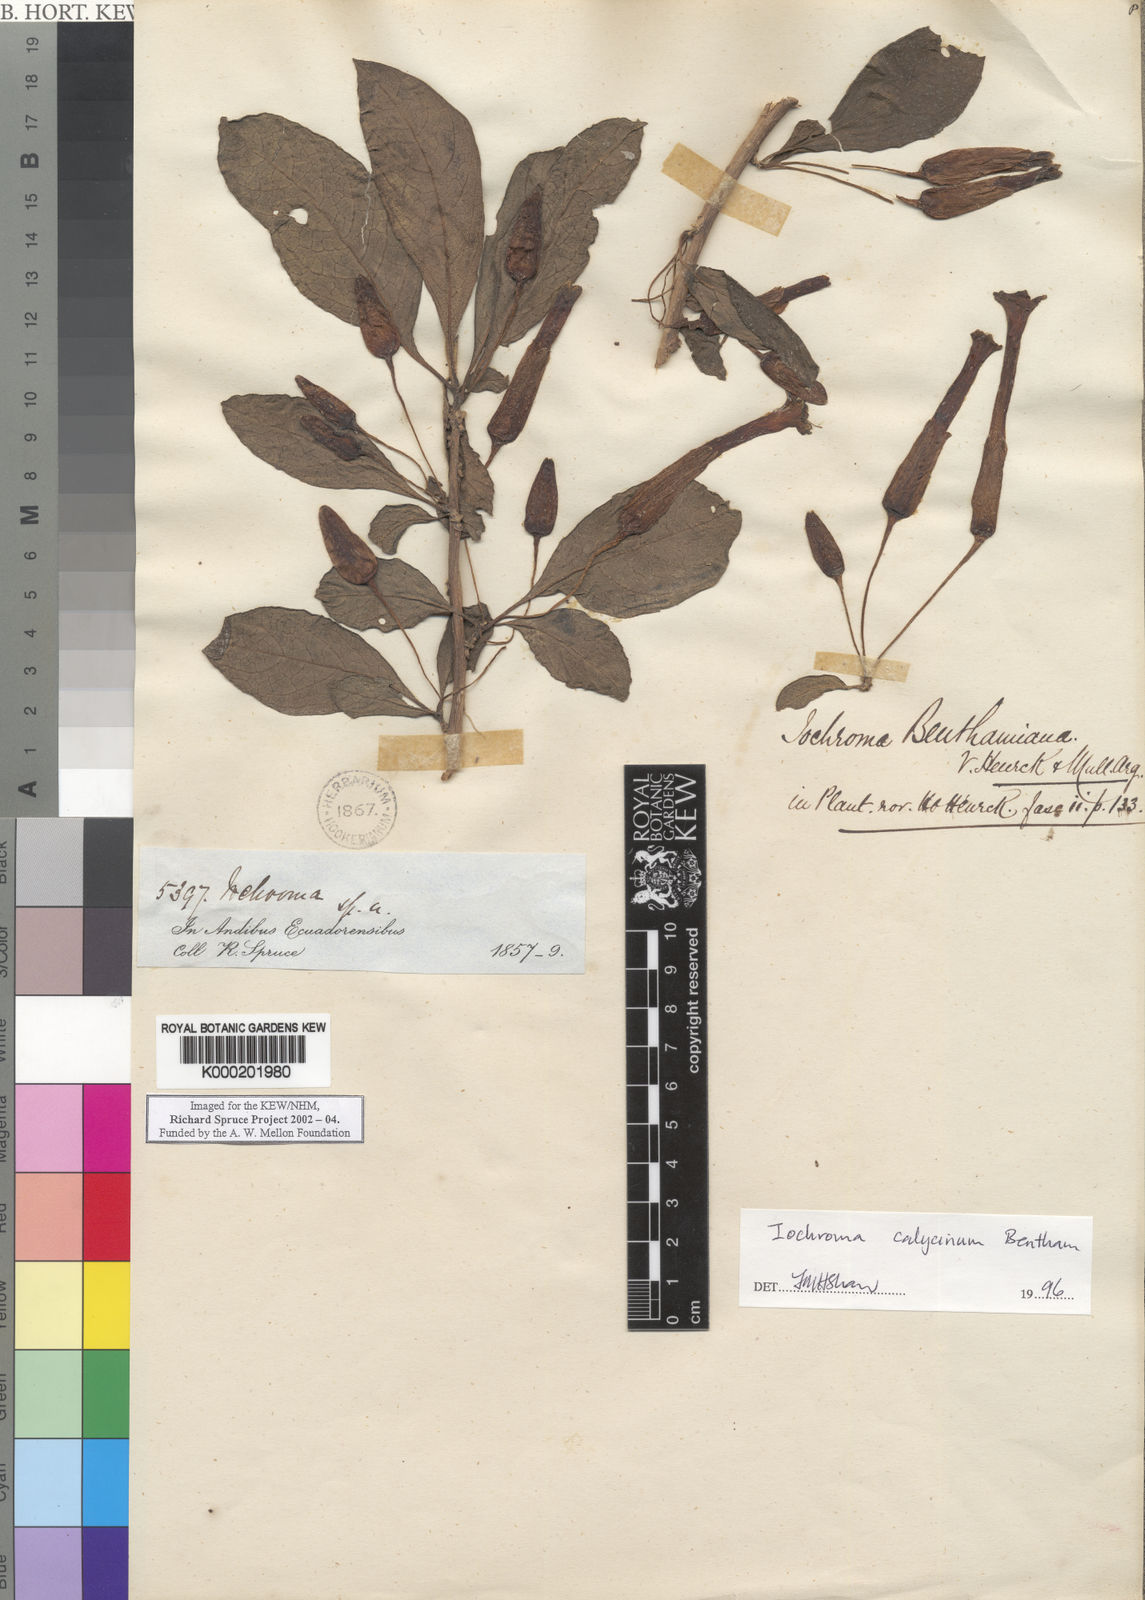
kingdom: Plantae
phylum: Tracheophyta
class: Magnoliopsida
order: Solanales
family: Solanaceae
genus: Iochroma
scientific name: Iochroma
